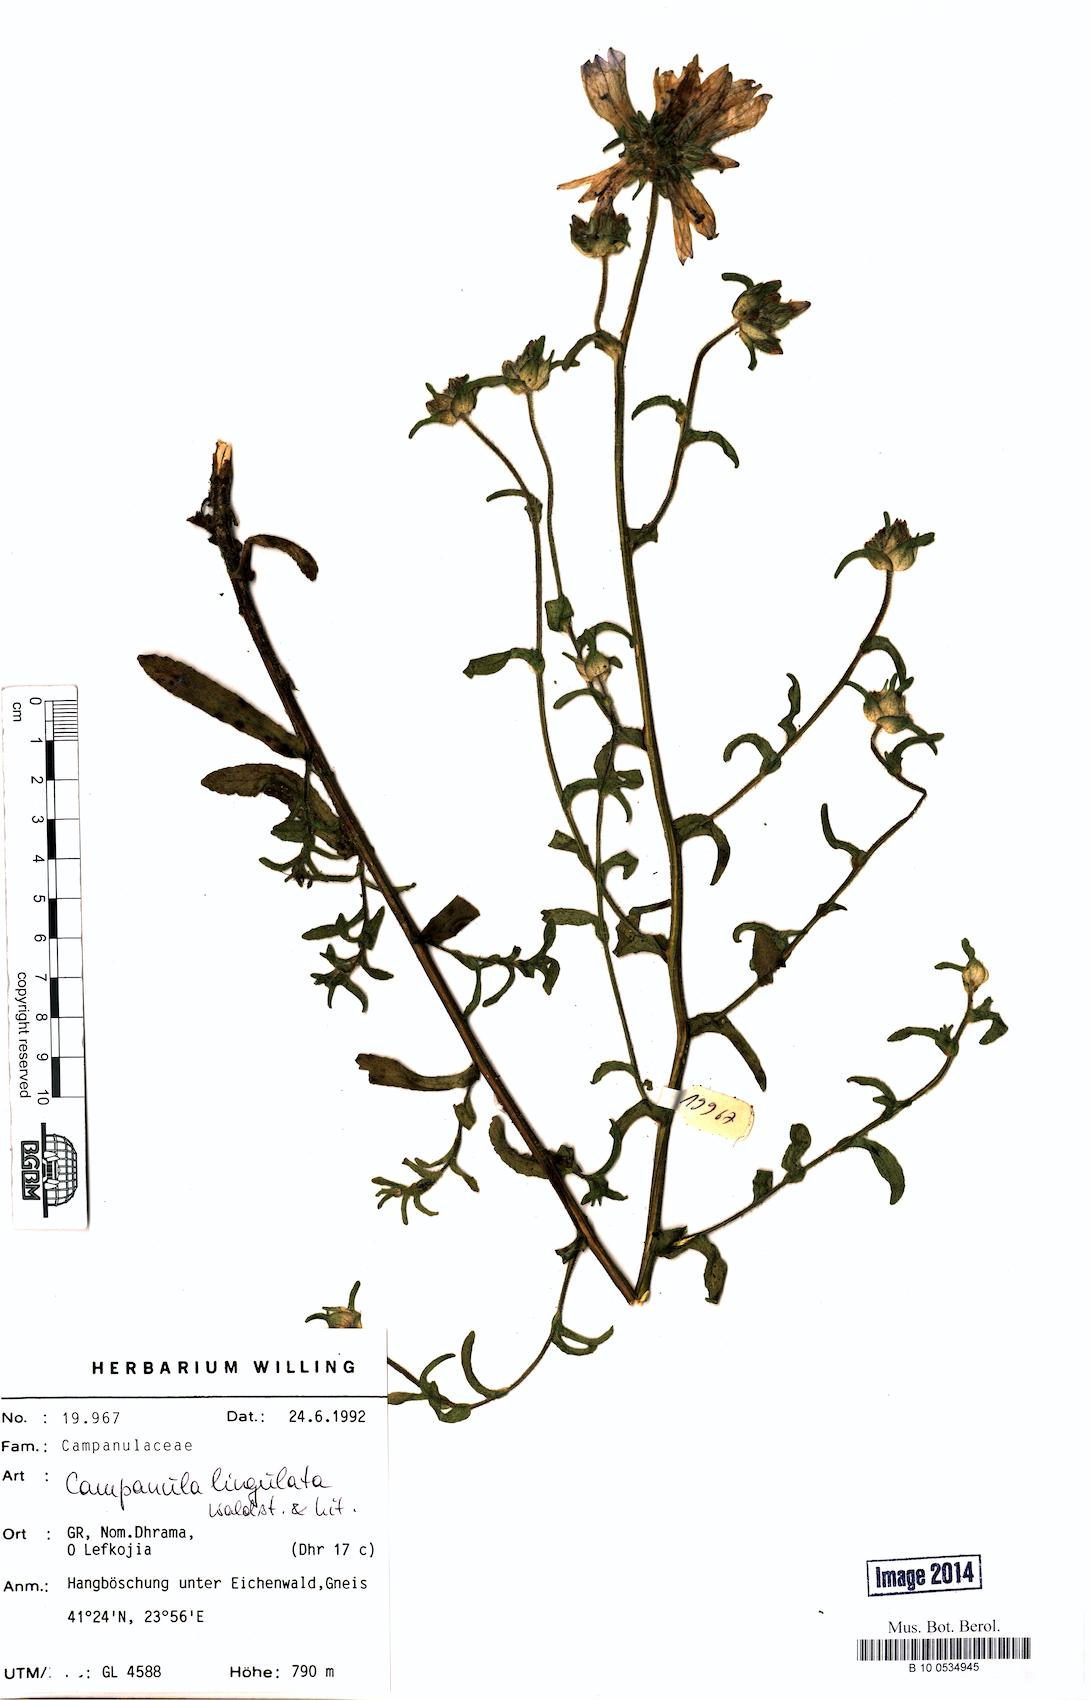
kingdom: Plantae
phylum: Tracheophyta
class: Magnoliopsida
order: Asterales
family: Campanulaceae
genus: Campanula
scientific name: Campanula lingulata
